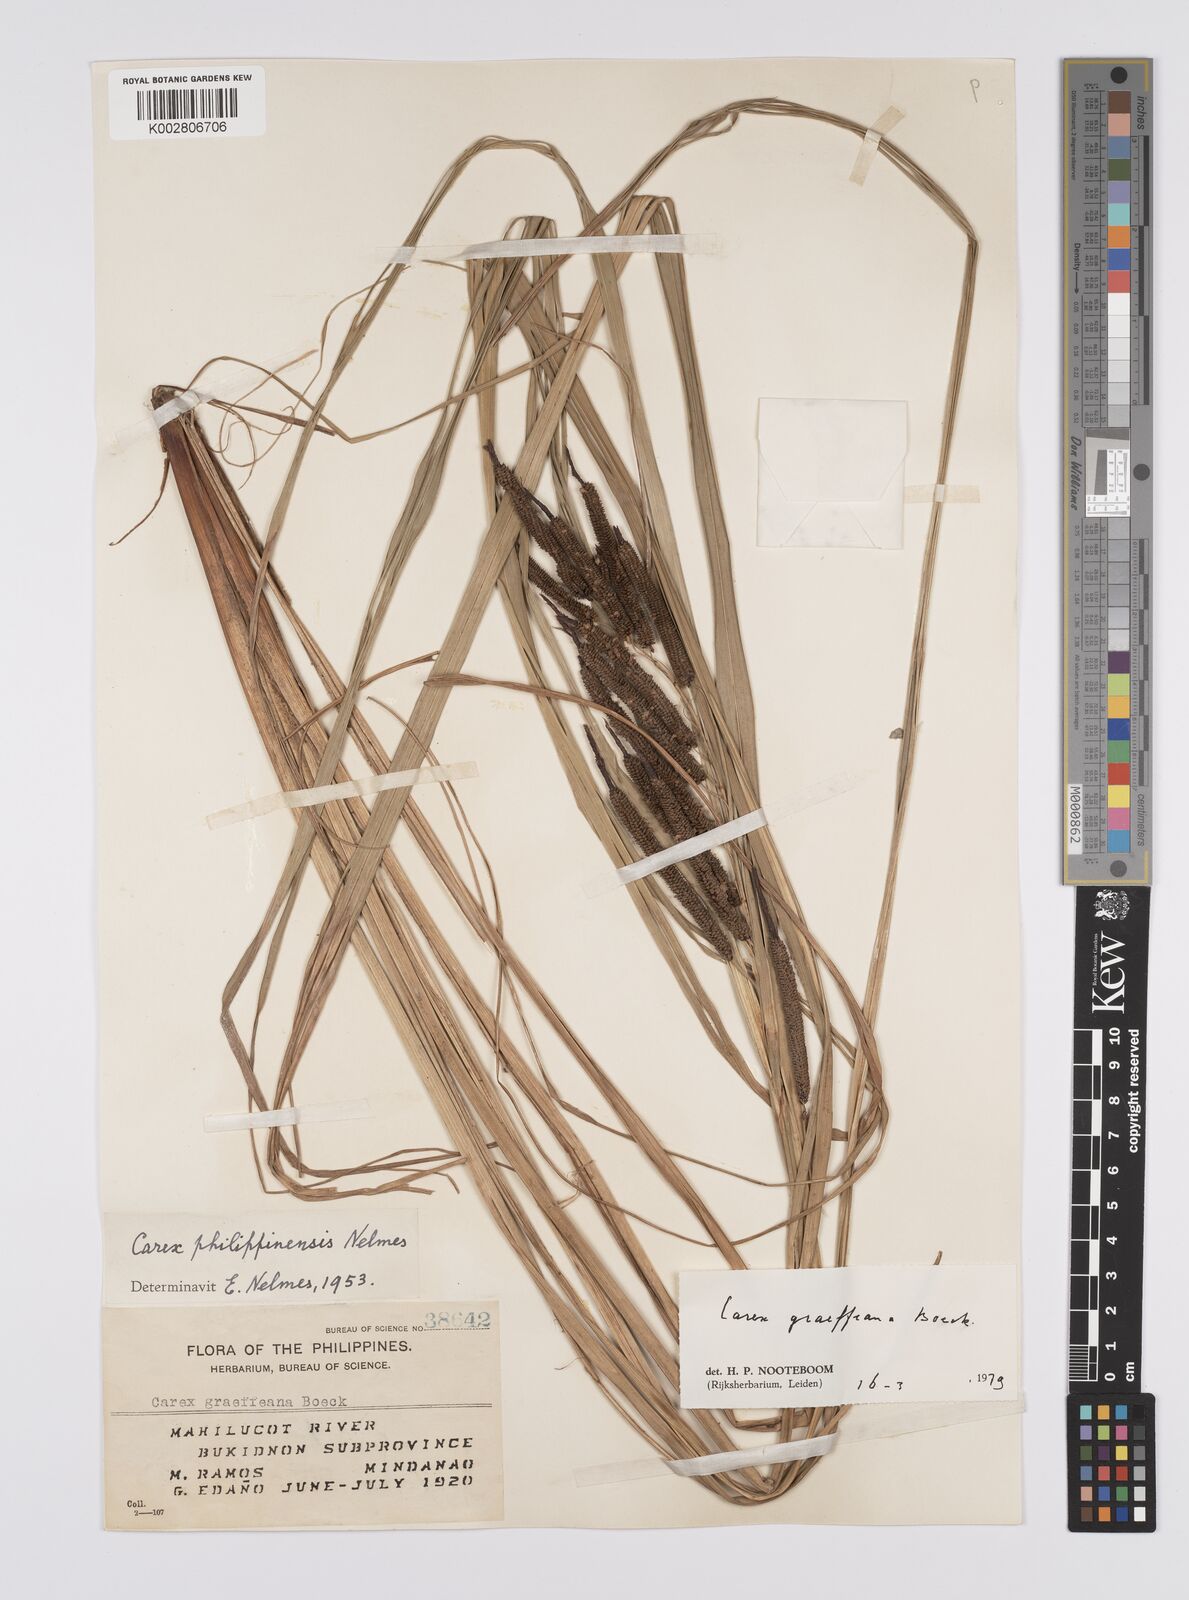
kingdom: Plantae
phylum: Tracheophyta
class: Liliopsida
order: Poales
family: Cyperaceae
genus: Carex
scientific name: Carex graeffeana
